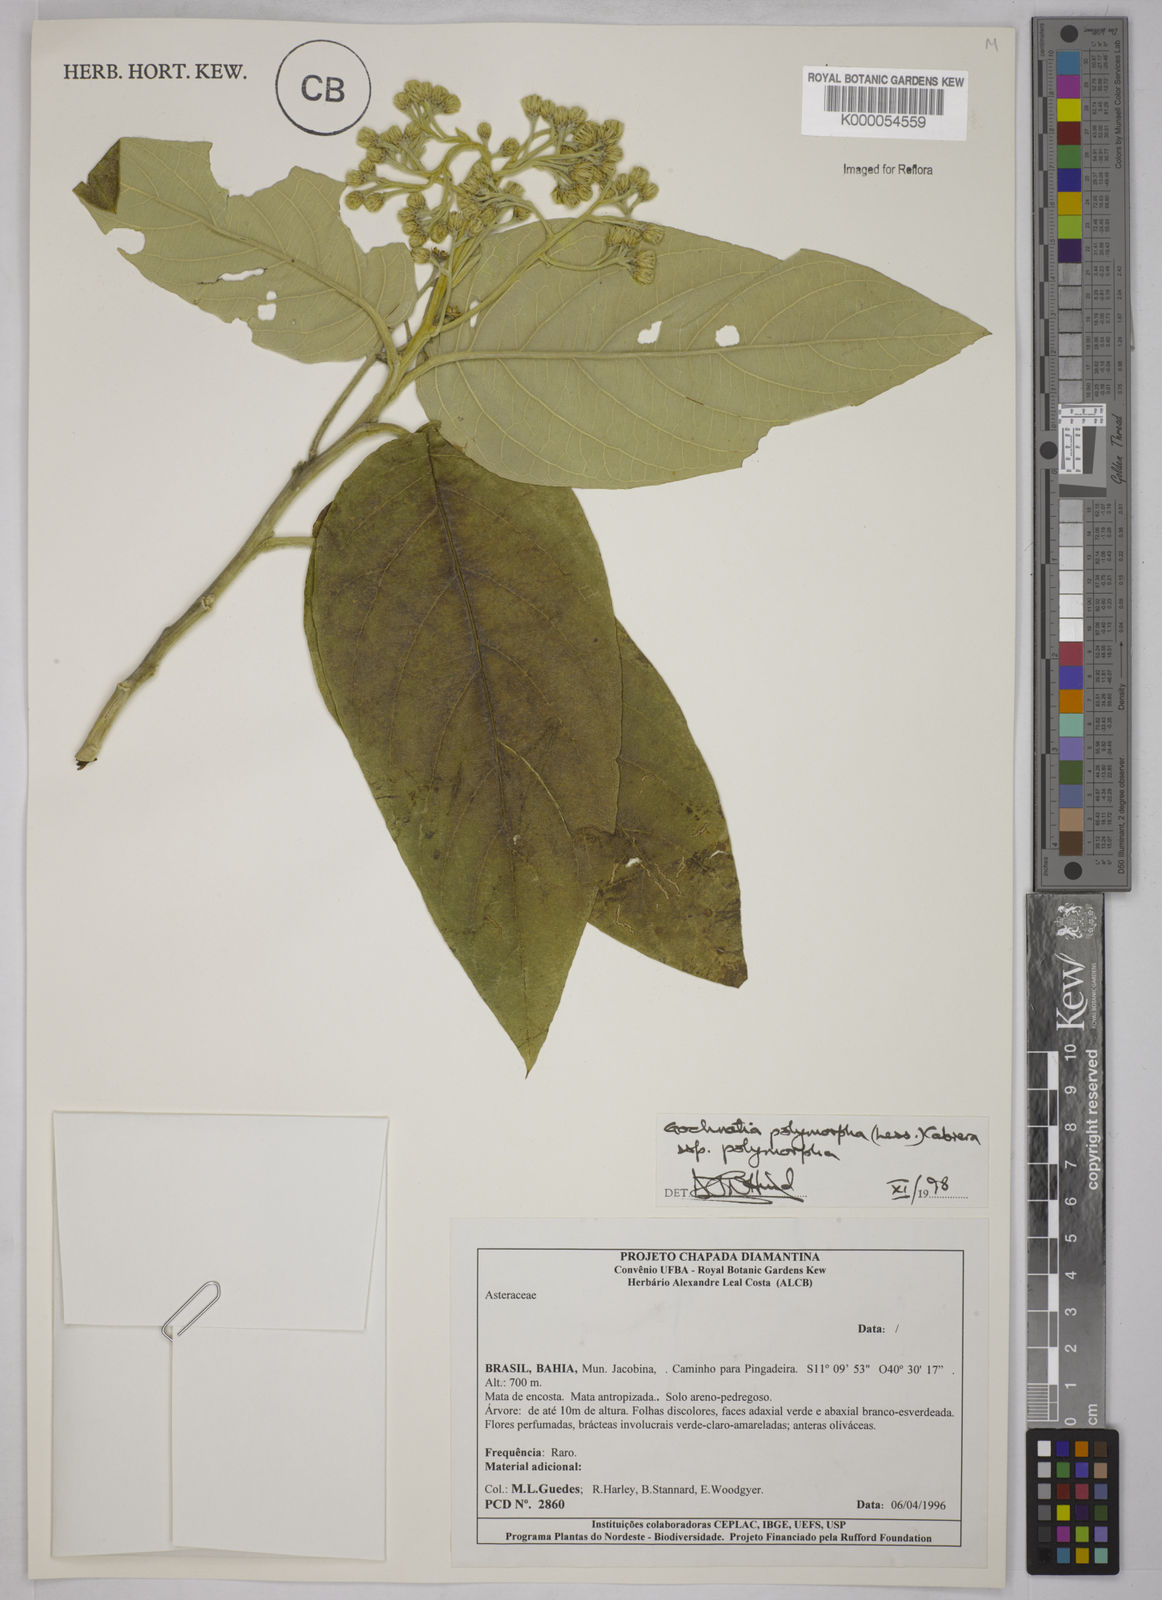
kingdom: Plantae
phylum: Tracheophyta
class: Magnoliopsida
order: Asterales
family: Asteraceae
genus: Moquiniastrum
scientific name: Moquiniastrum polymorphum
